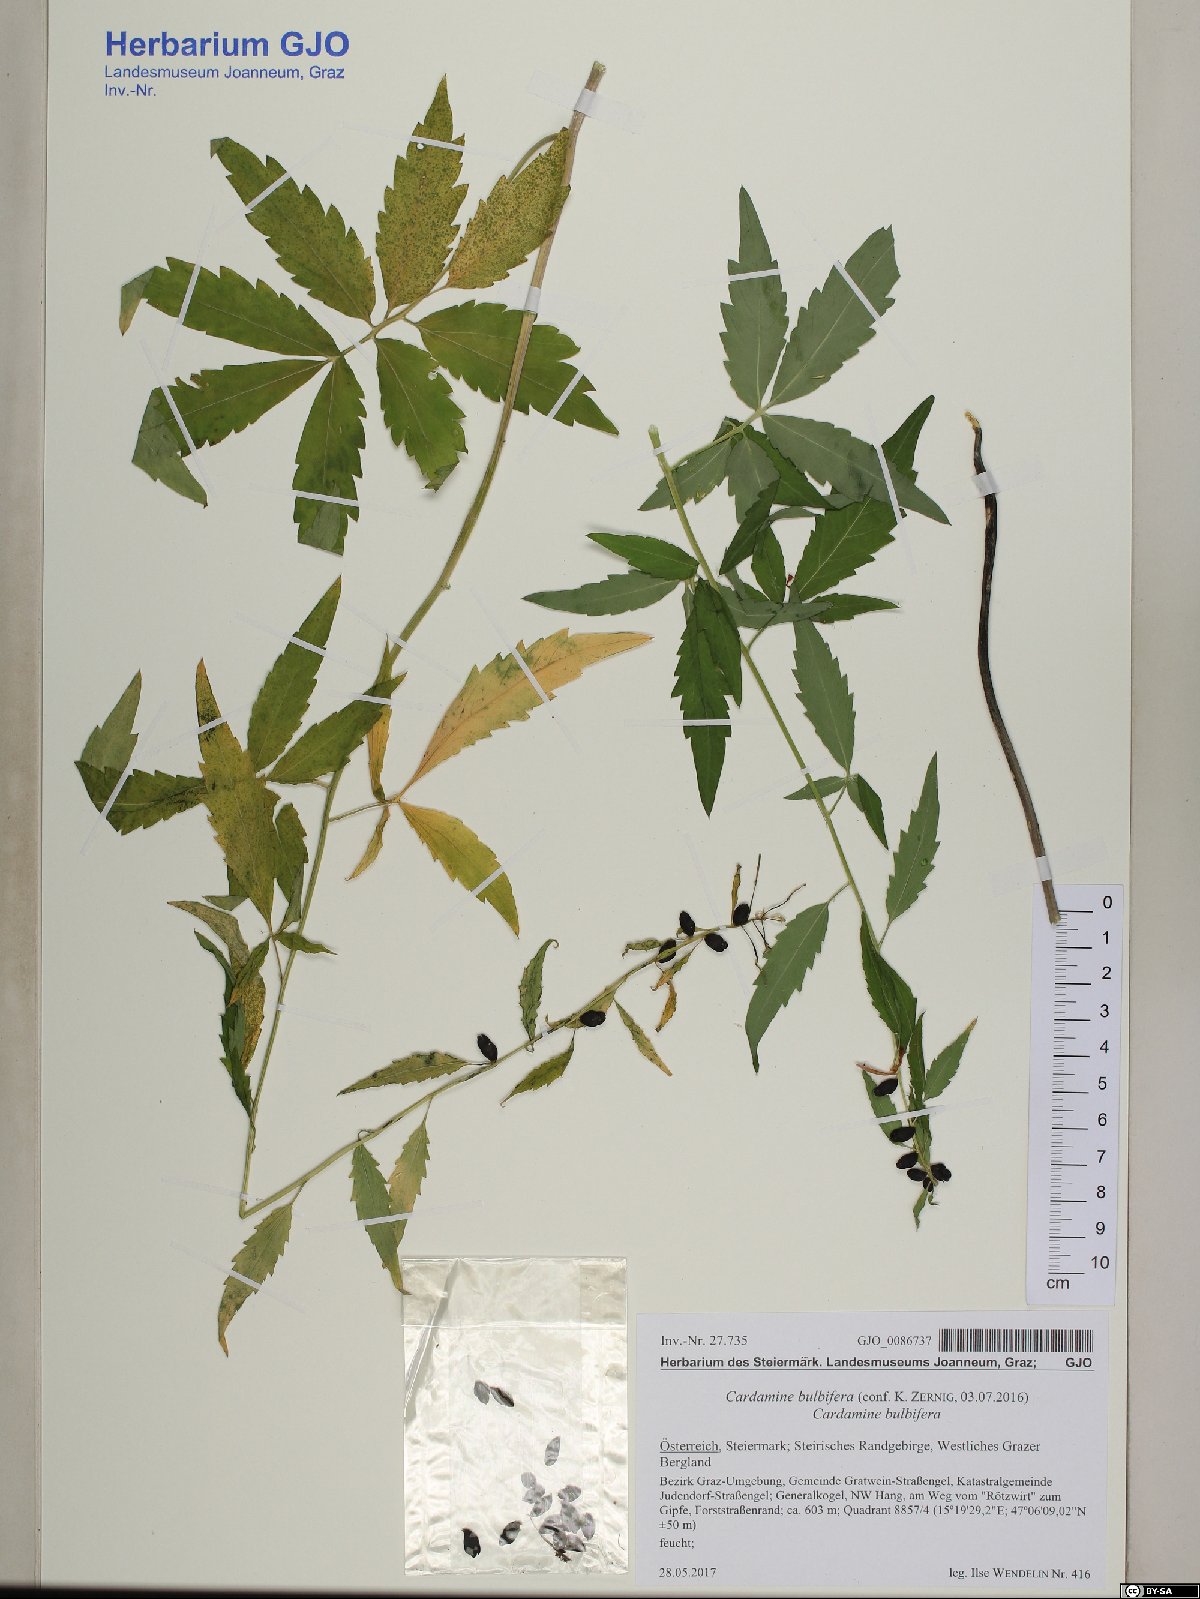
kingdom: Plantae
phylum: Tracheophyta
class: Magnoliopsida
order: Brassicales
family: Brassicaceae
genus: Cardamine
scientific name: Cardamine bulbifera
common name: Coralroot bittercress
